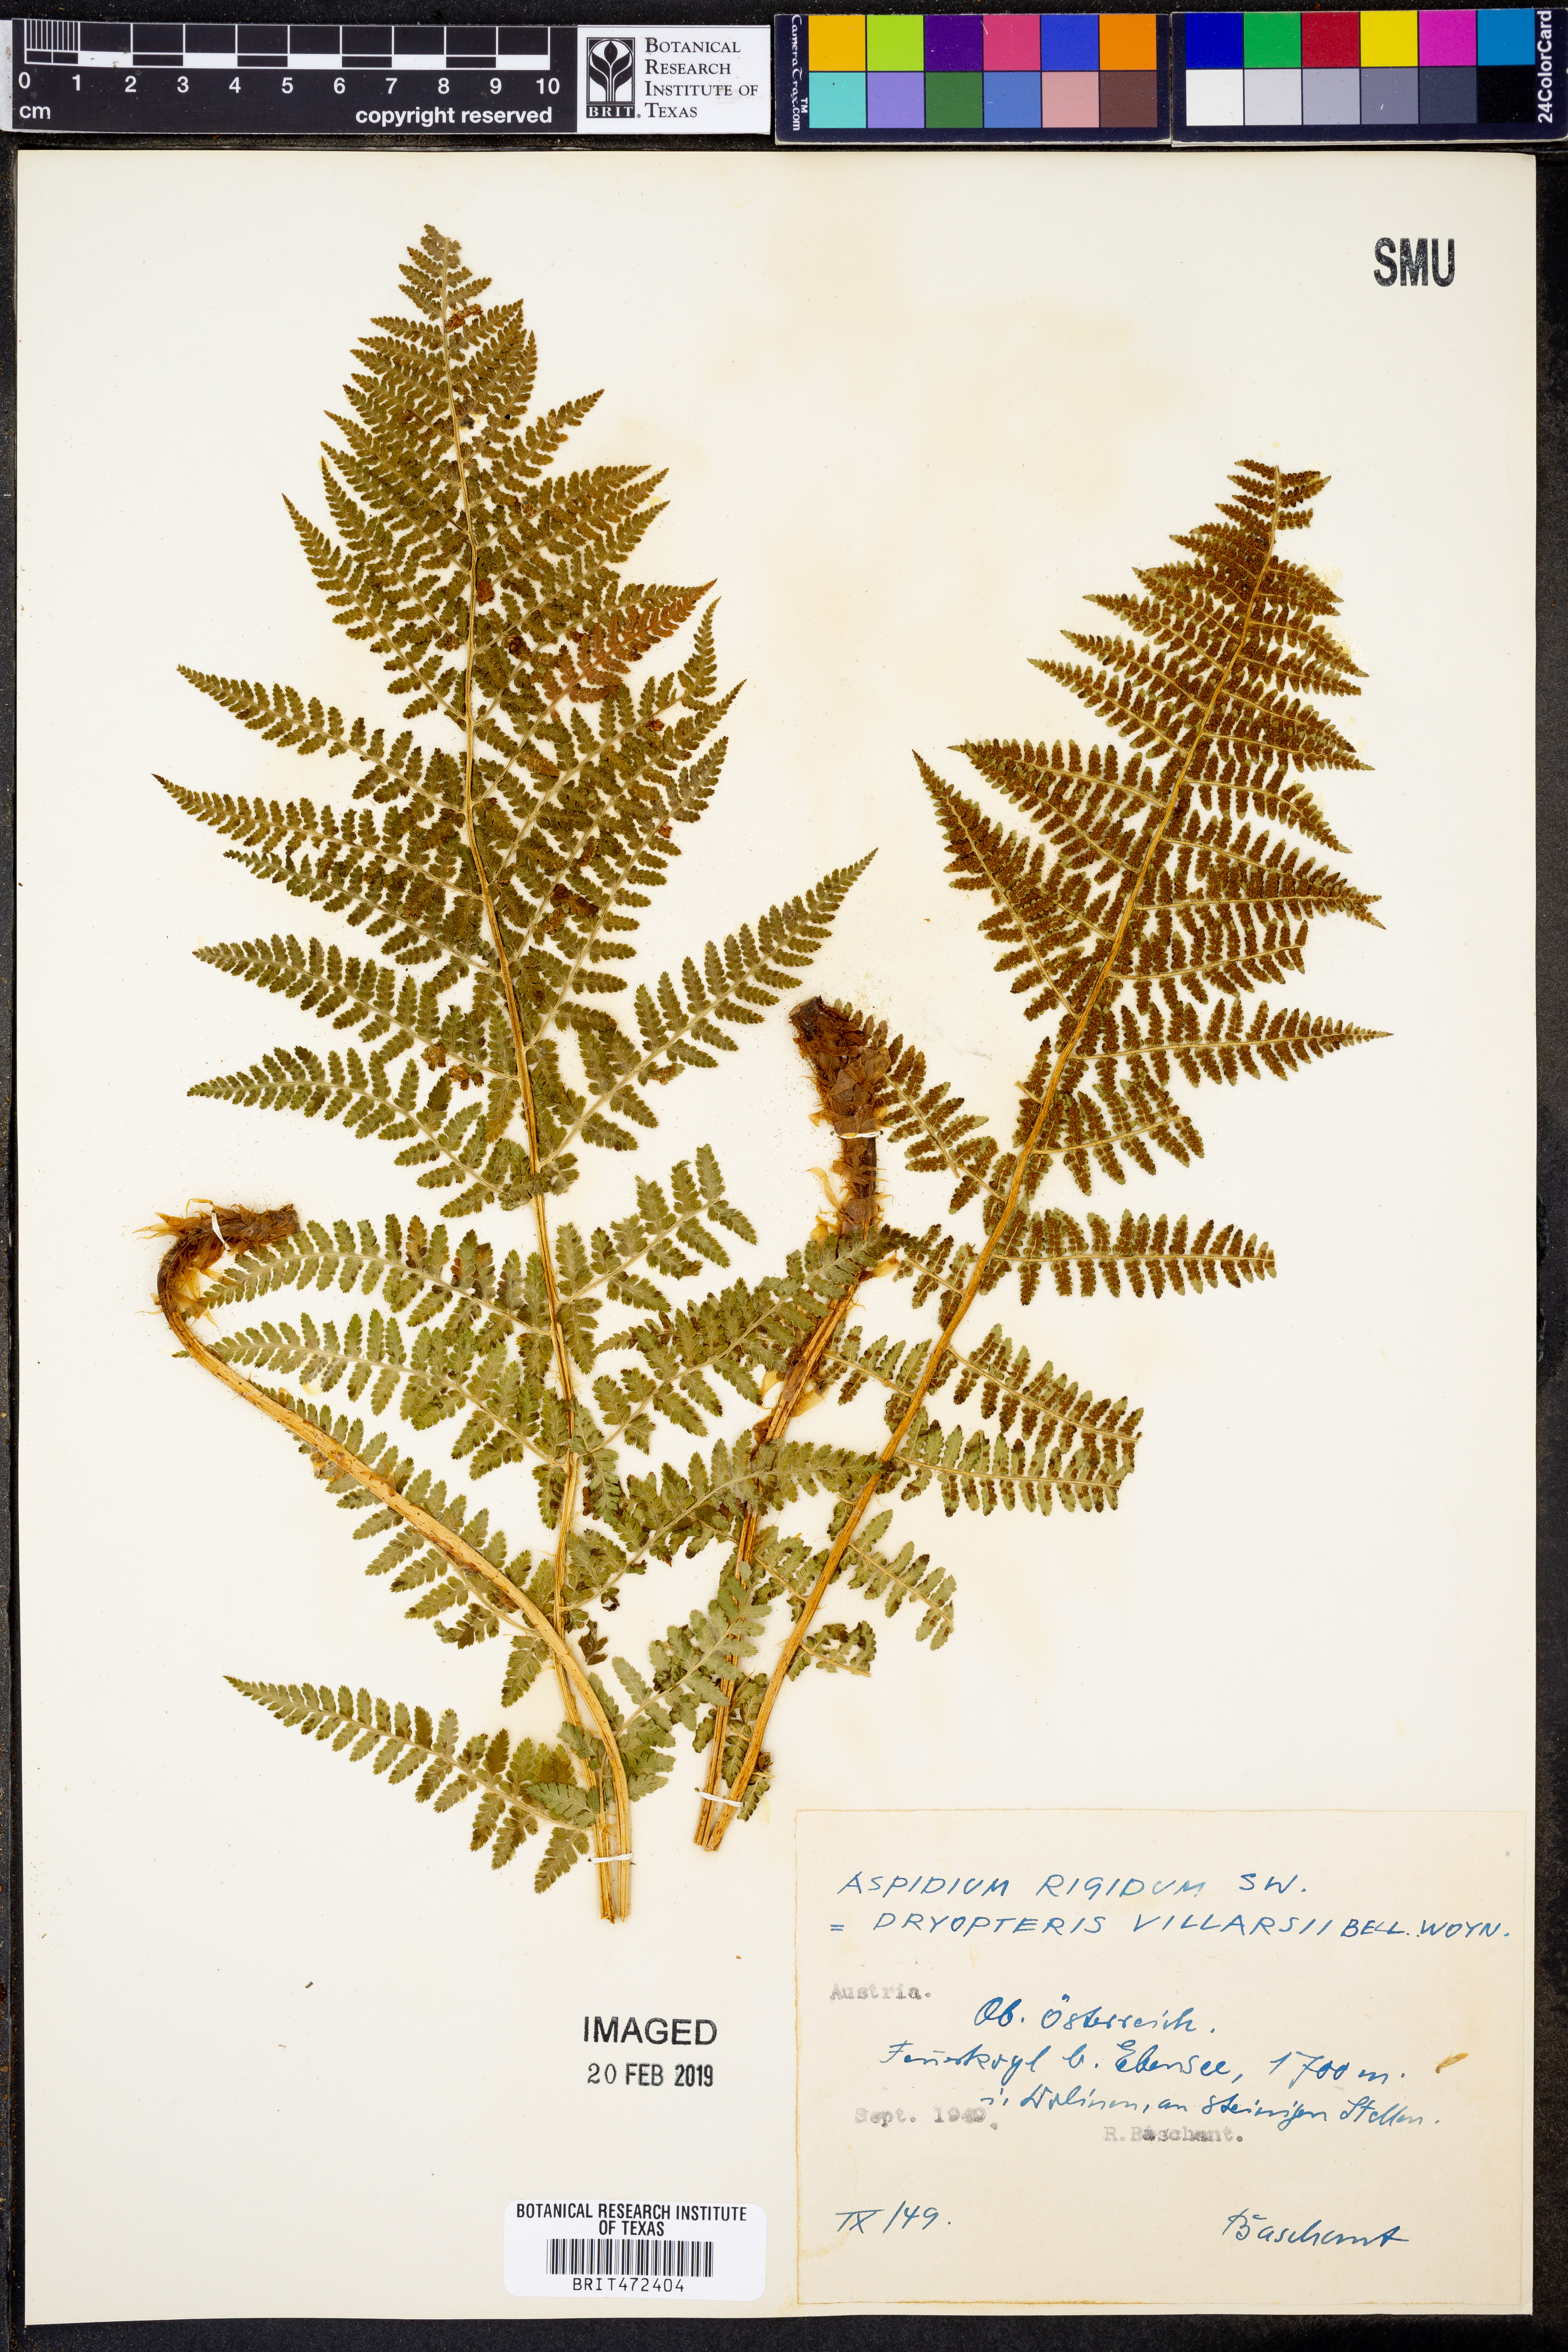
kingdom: Plantae
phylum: Tracheophyta
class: Polypodiopsida
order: Polypodiales
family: Dryopteridaceae
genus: Dryopteris
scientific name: Dryopteris villarii
